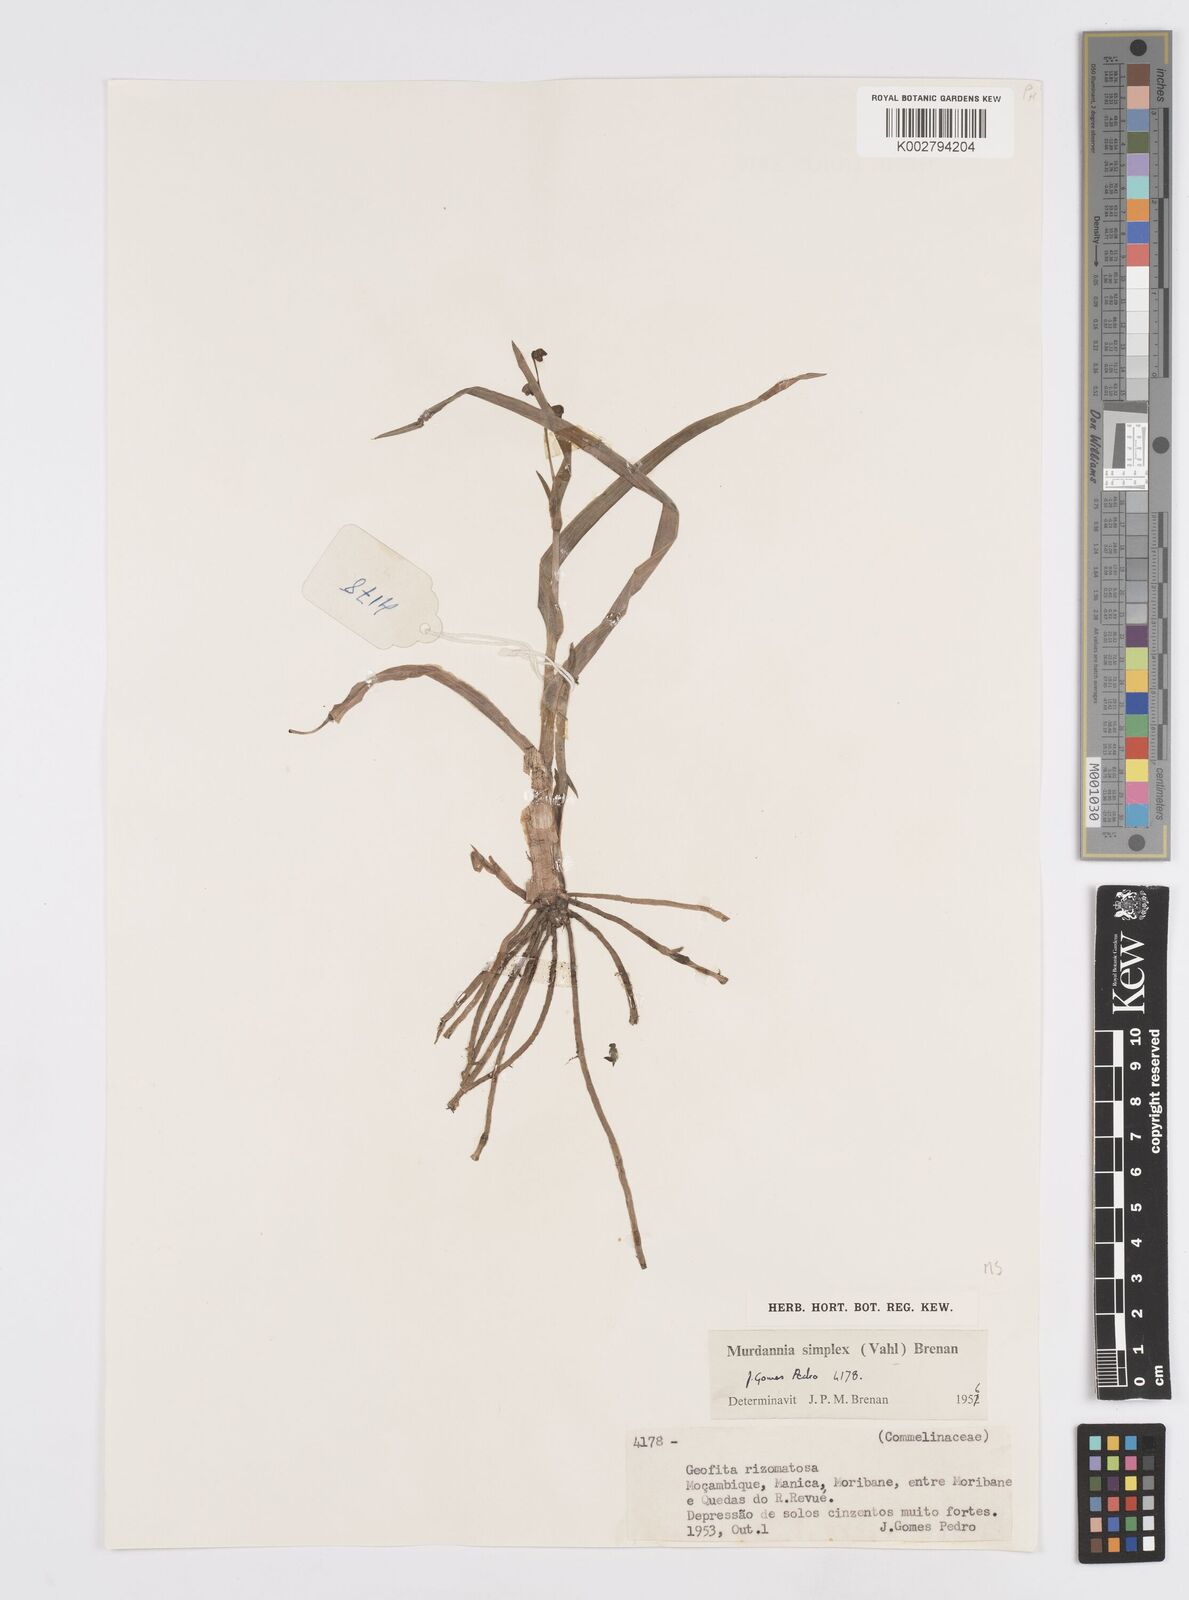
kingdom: Plantae
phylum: Tracheophyta
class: Liliopsida
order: Commelinales
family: Commelinaceae
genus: Murdannia
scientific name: Murdannia simplex
